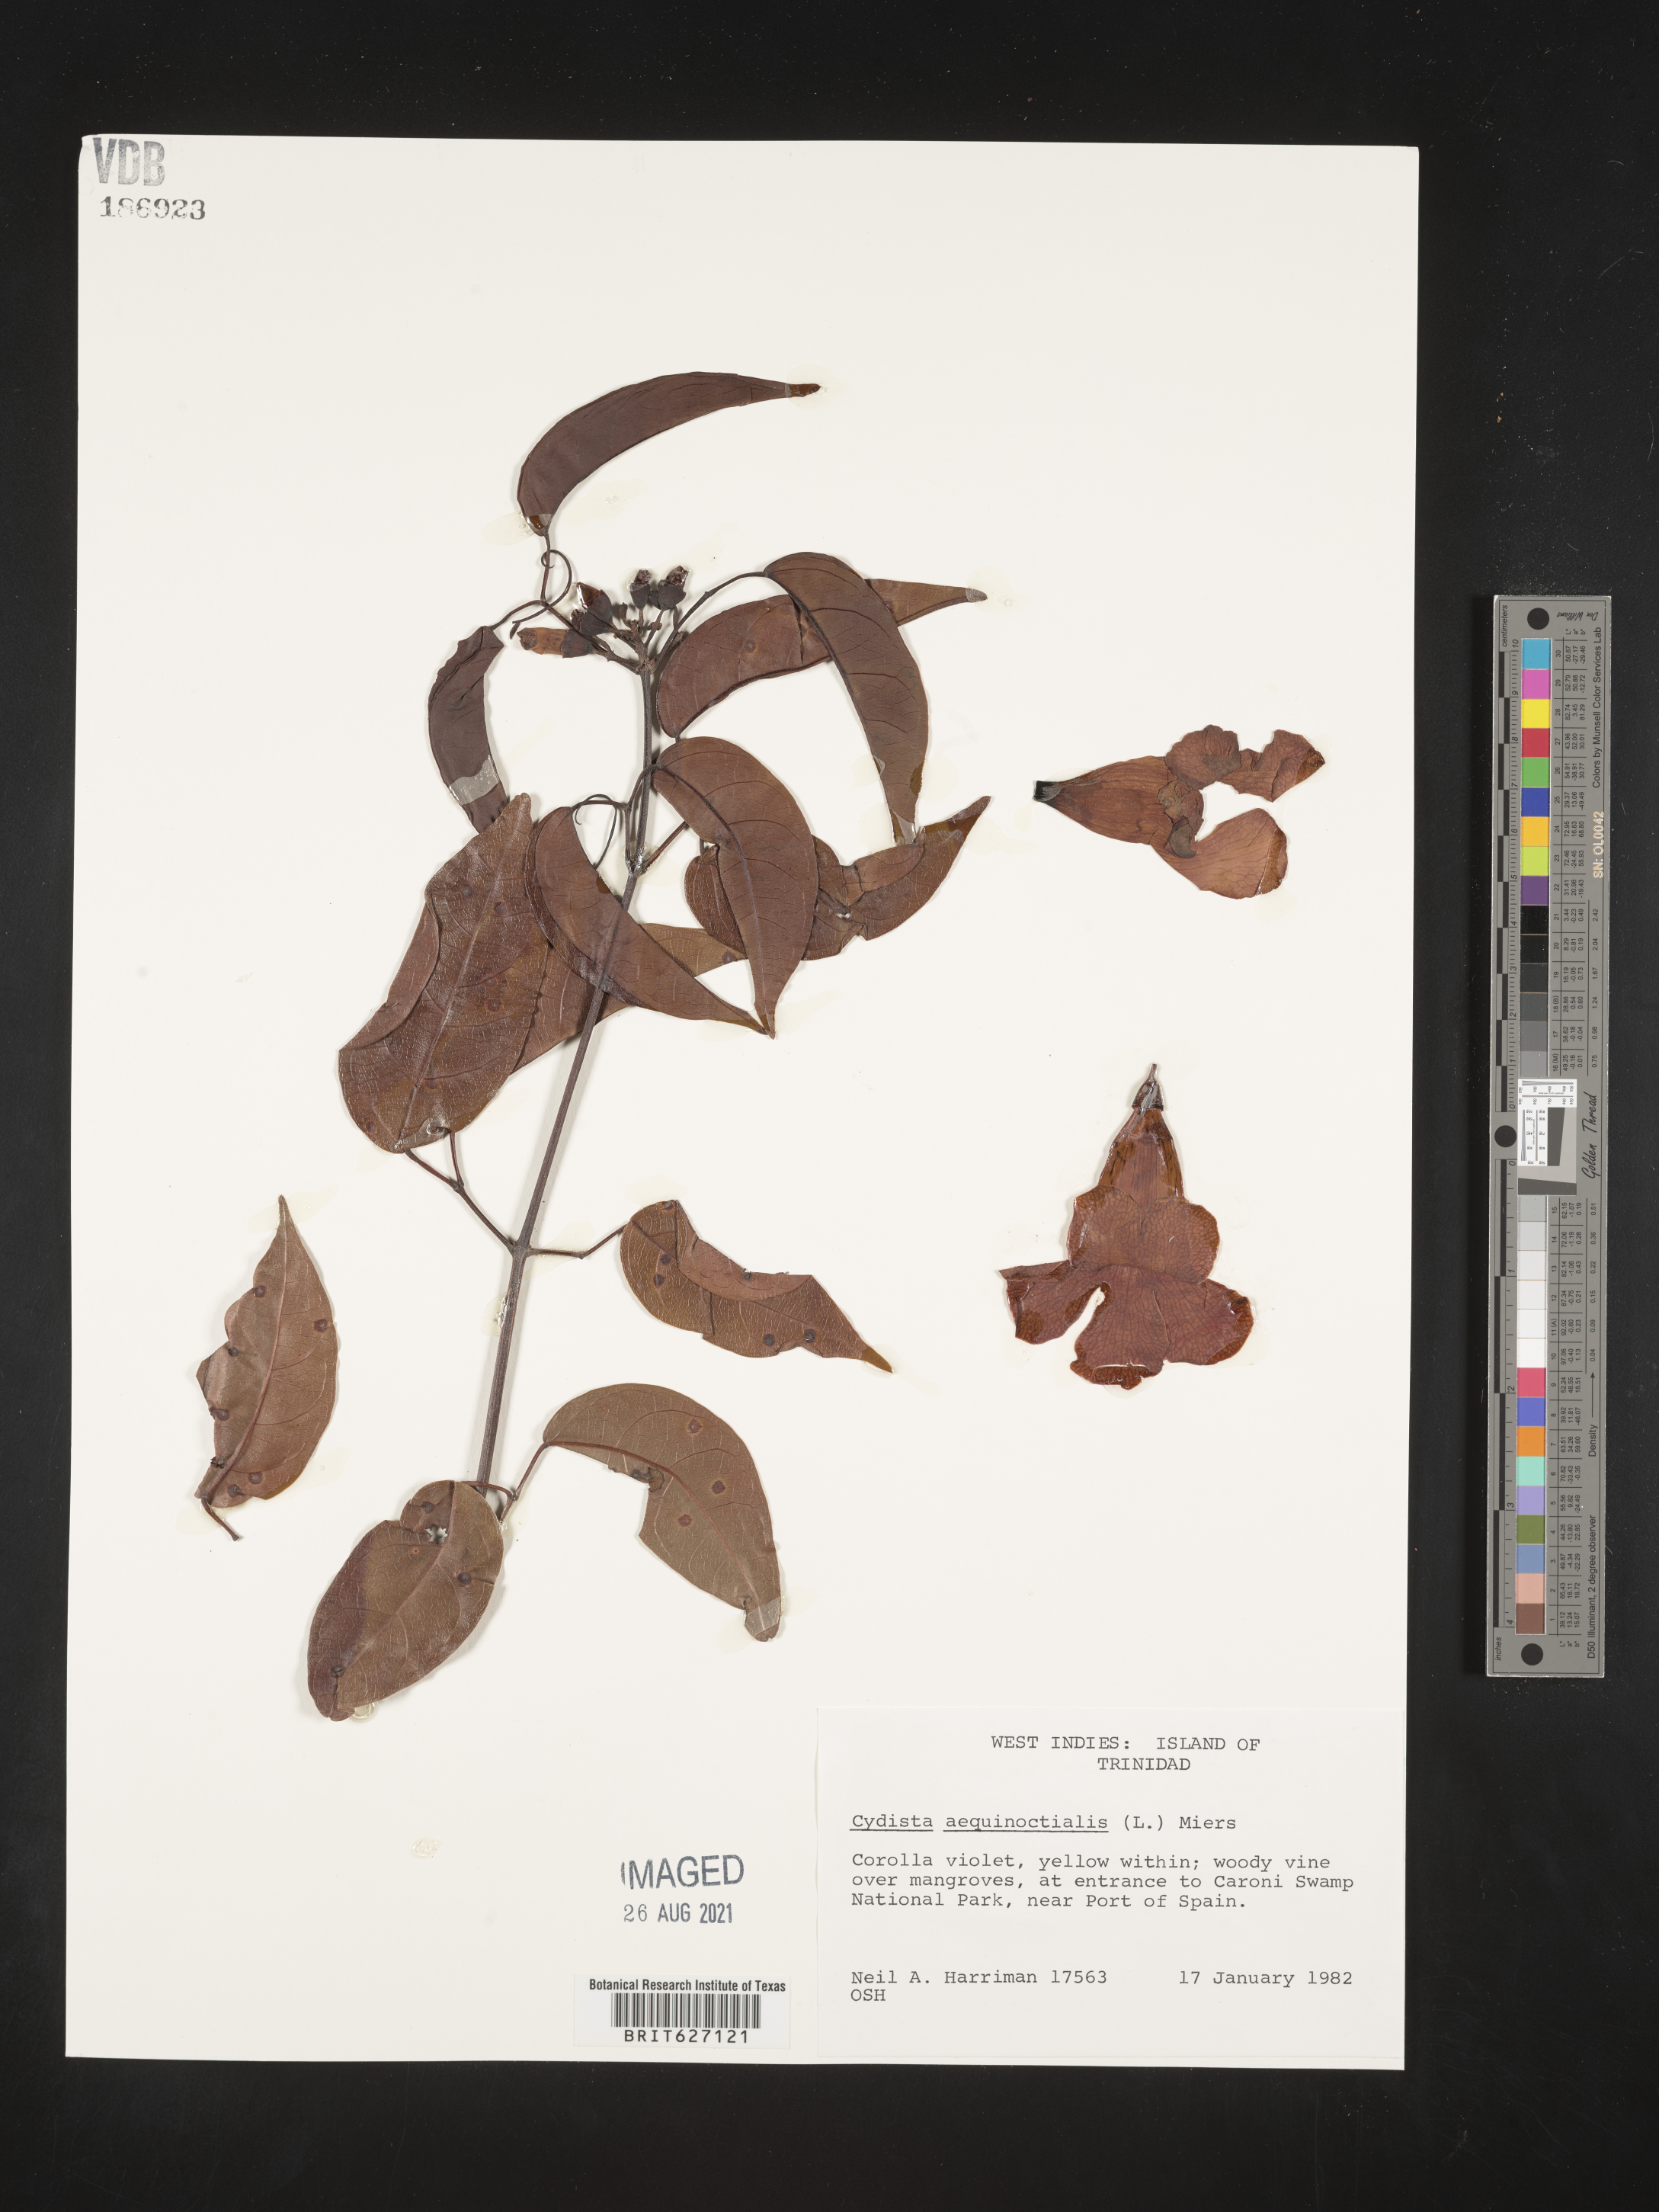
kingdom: Plantae
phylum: Tracheophyta
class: Magnoliopsida
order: Lamiales
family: Bignoniaceae
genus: Bignonia
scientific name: Bignonia aequinoctialis
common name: Garlicvine
